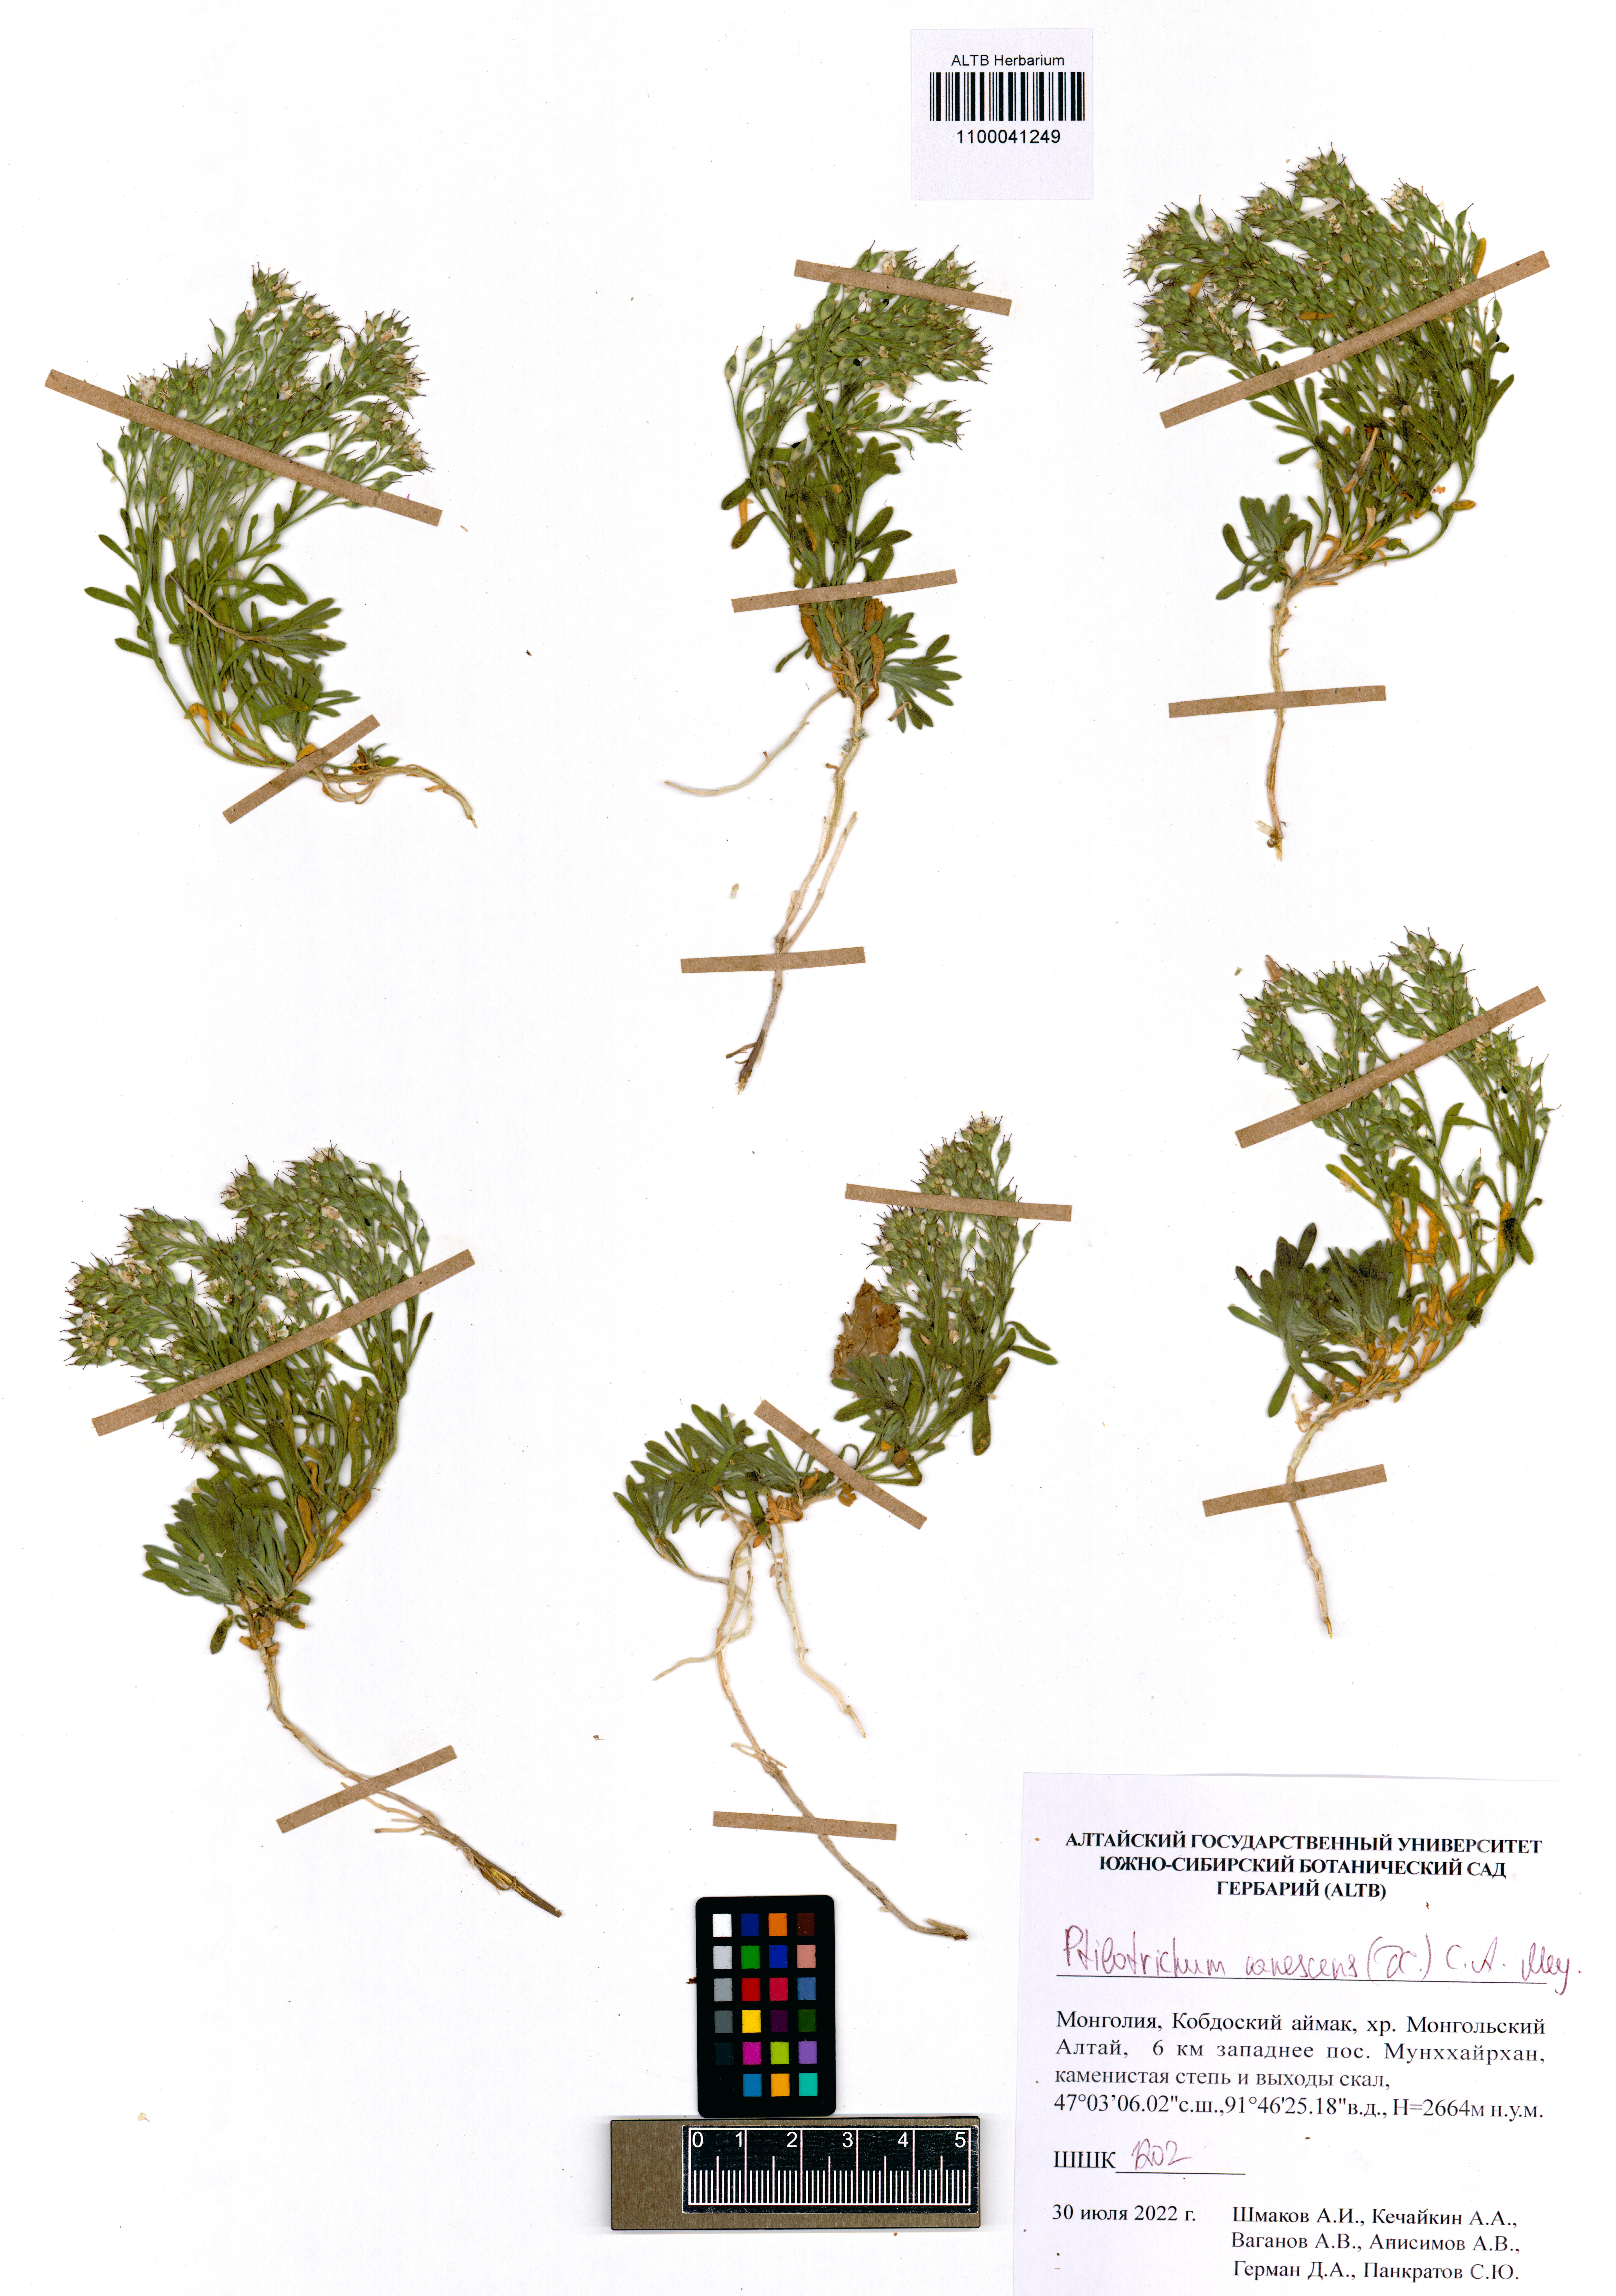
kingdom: Plantae
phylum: Tracheophyta
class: Magnoliopsida
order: Brassicales
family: Brassicaceae
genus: Stevenia
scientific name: Stevenia canescens
